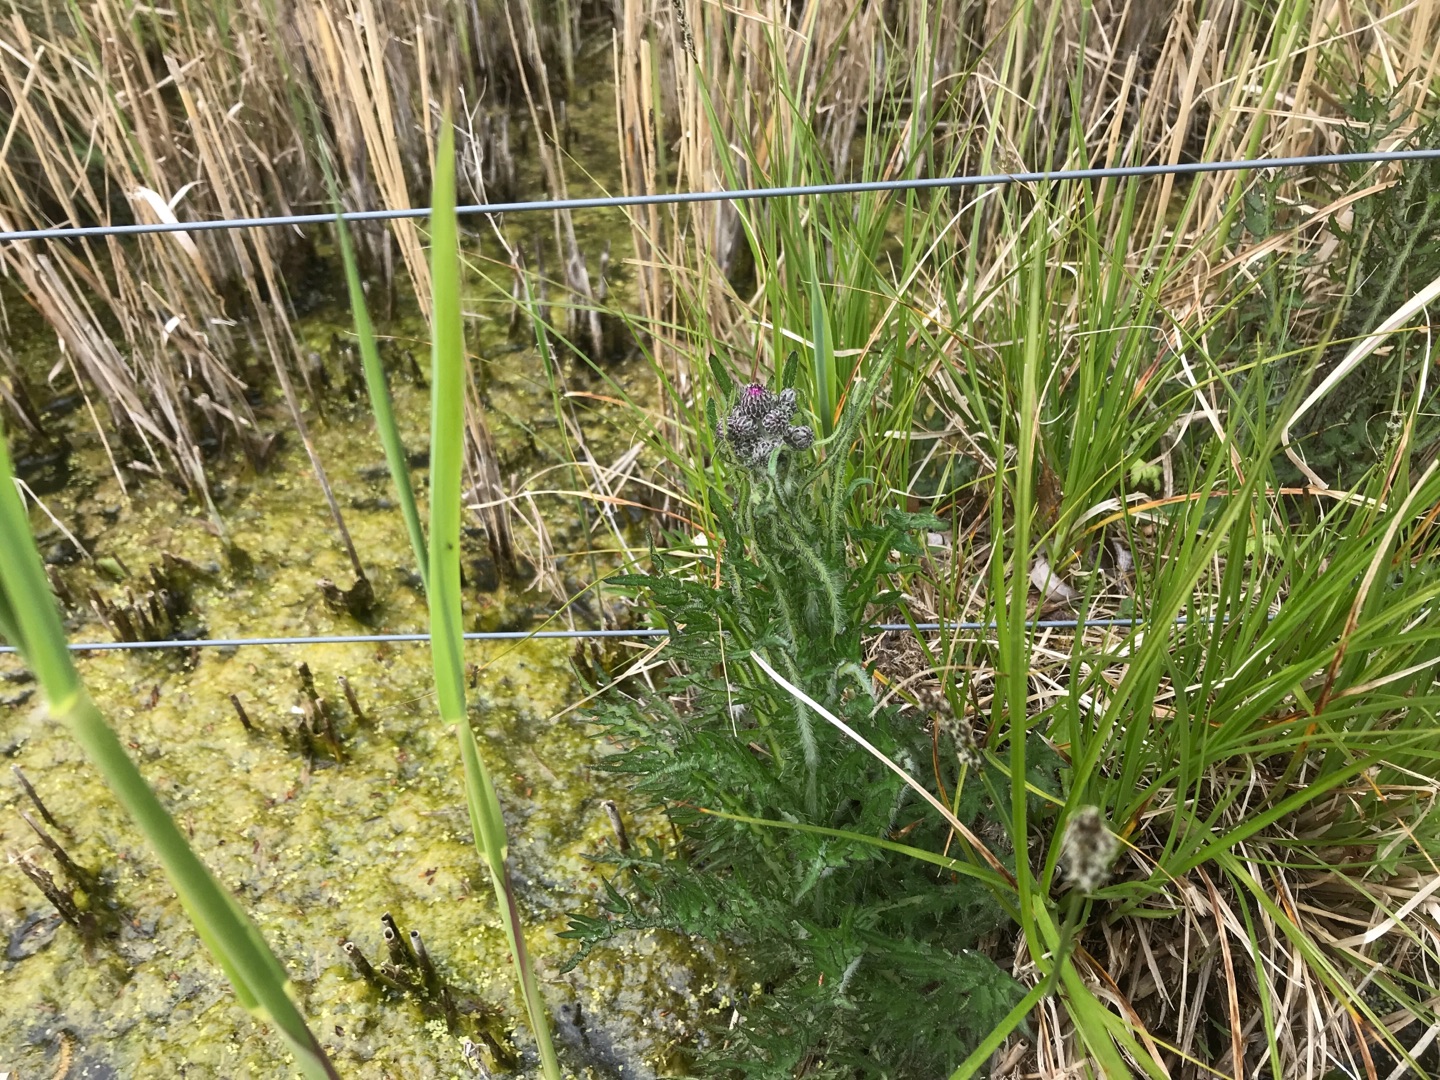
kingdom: Plantae
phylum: Tracheophyta
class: Magnoliopsida
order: Asterales
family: Asteraceae
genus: Cirsium
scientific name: Cirsium palustre
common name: Kær-tidsel
